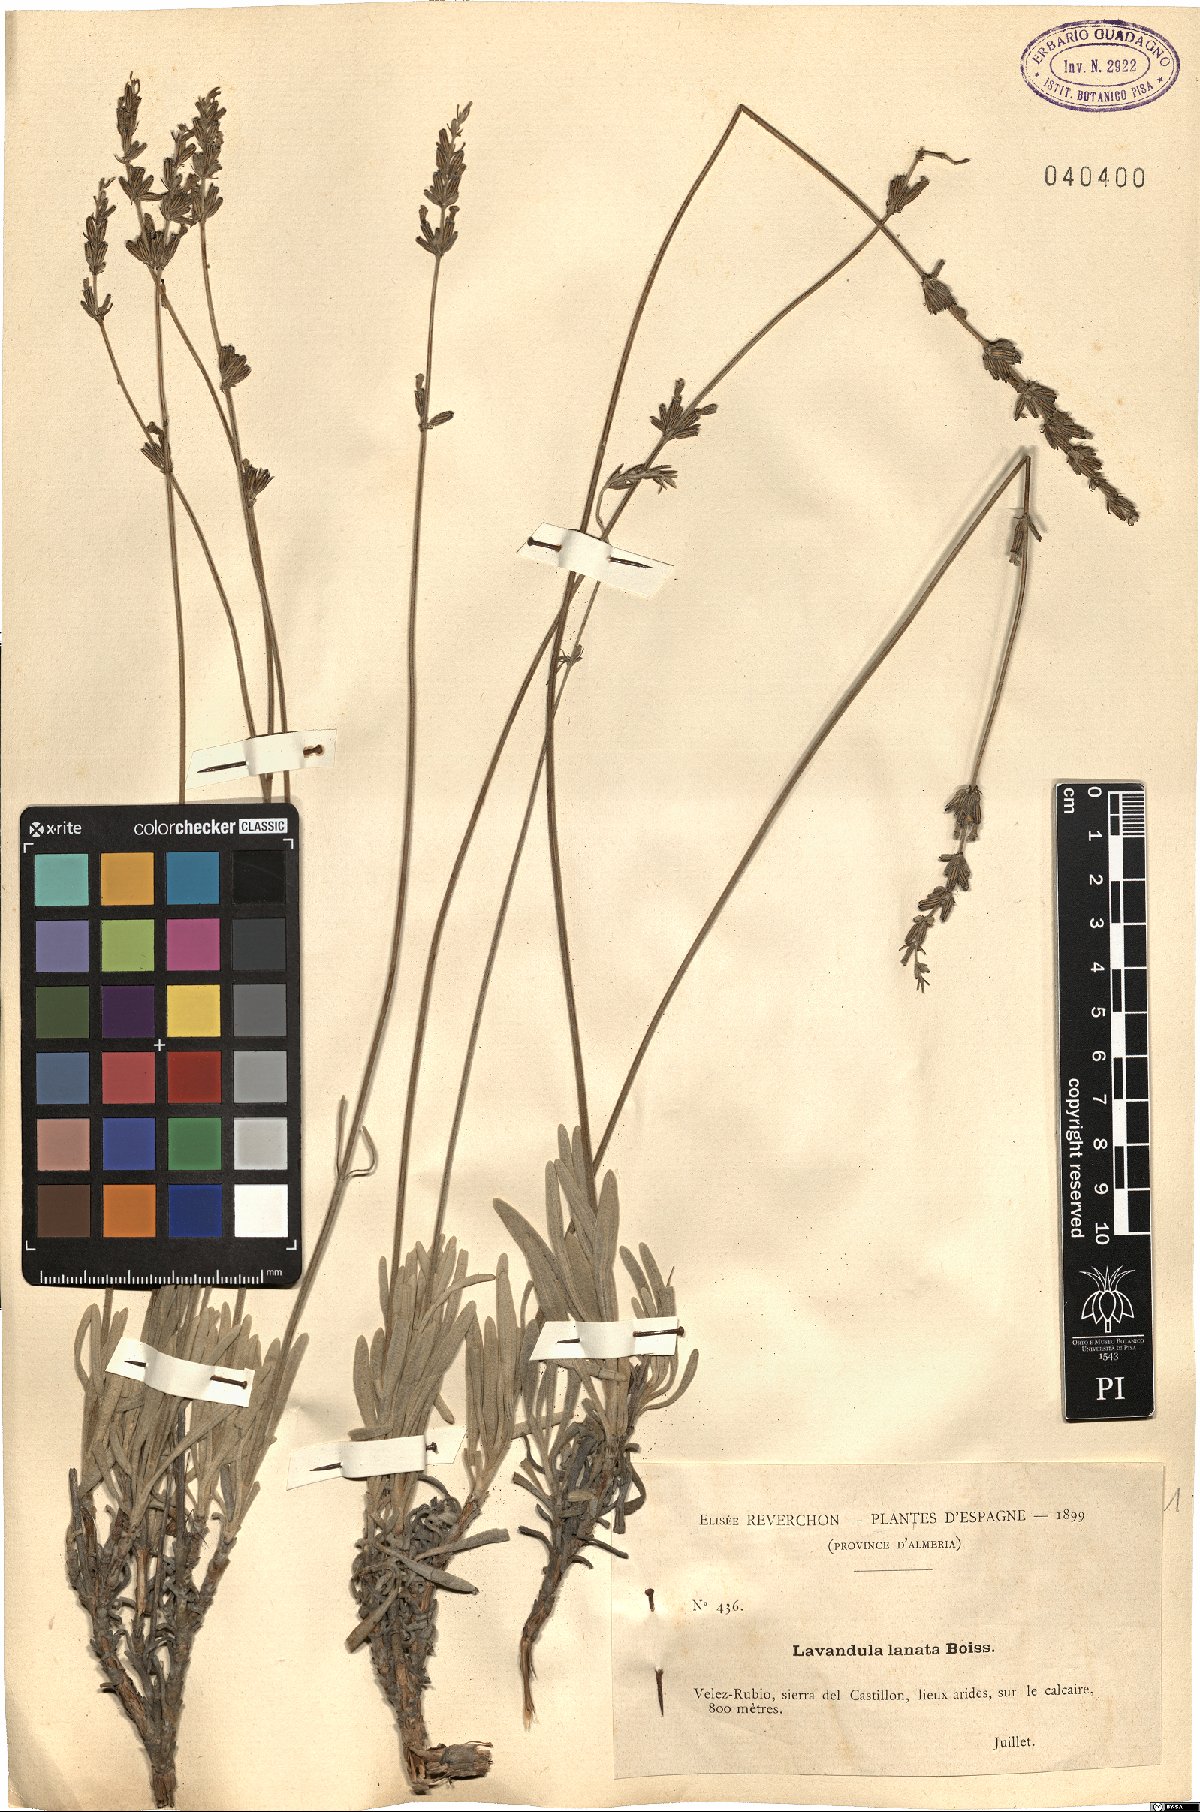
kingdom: Plantae
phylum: Tracheophyta
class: Magnoliopsida
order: Lamiales
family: Lamiaceae
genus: Lavandula
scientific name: Lavandula lanata
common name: Woolly lavender
